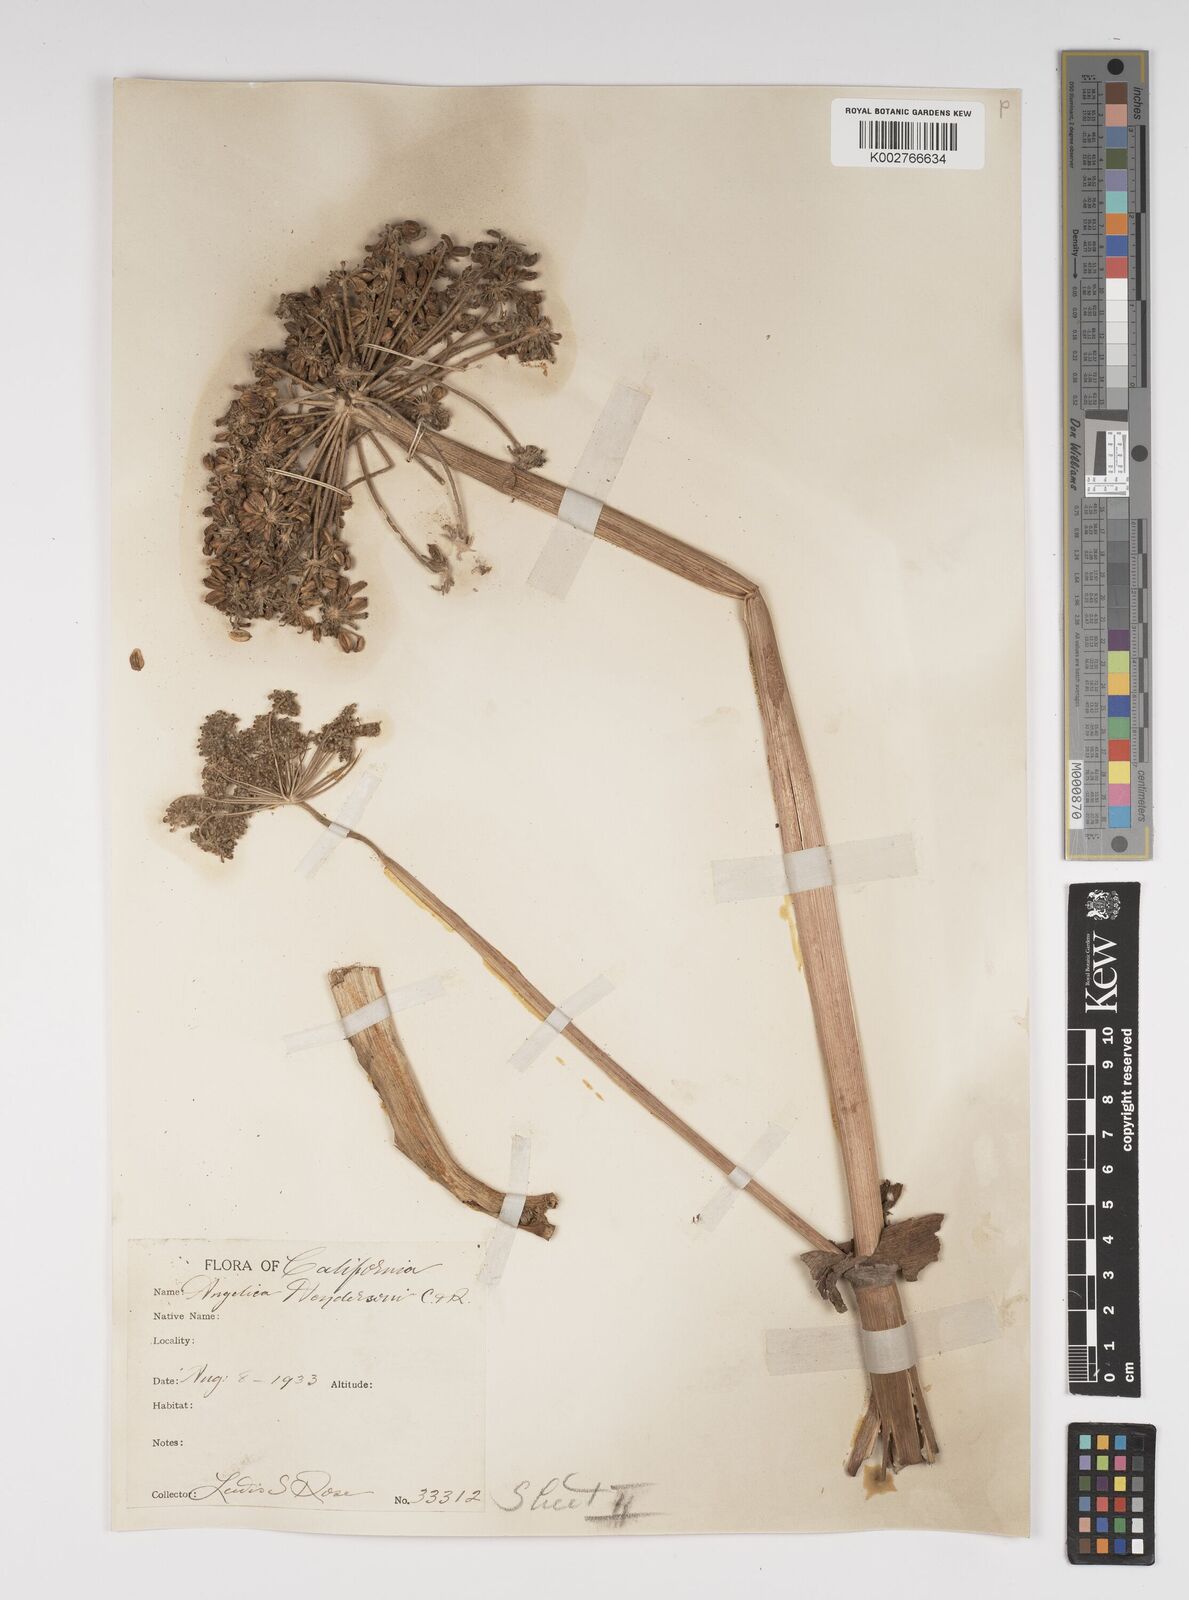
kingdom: Plantae
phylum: Tracheophyta
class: Magnoliopsida
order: Apiales
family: Apiaceae
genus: Angelica
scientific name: Angelica hendersonii
